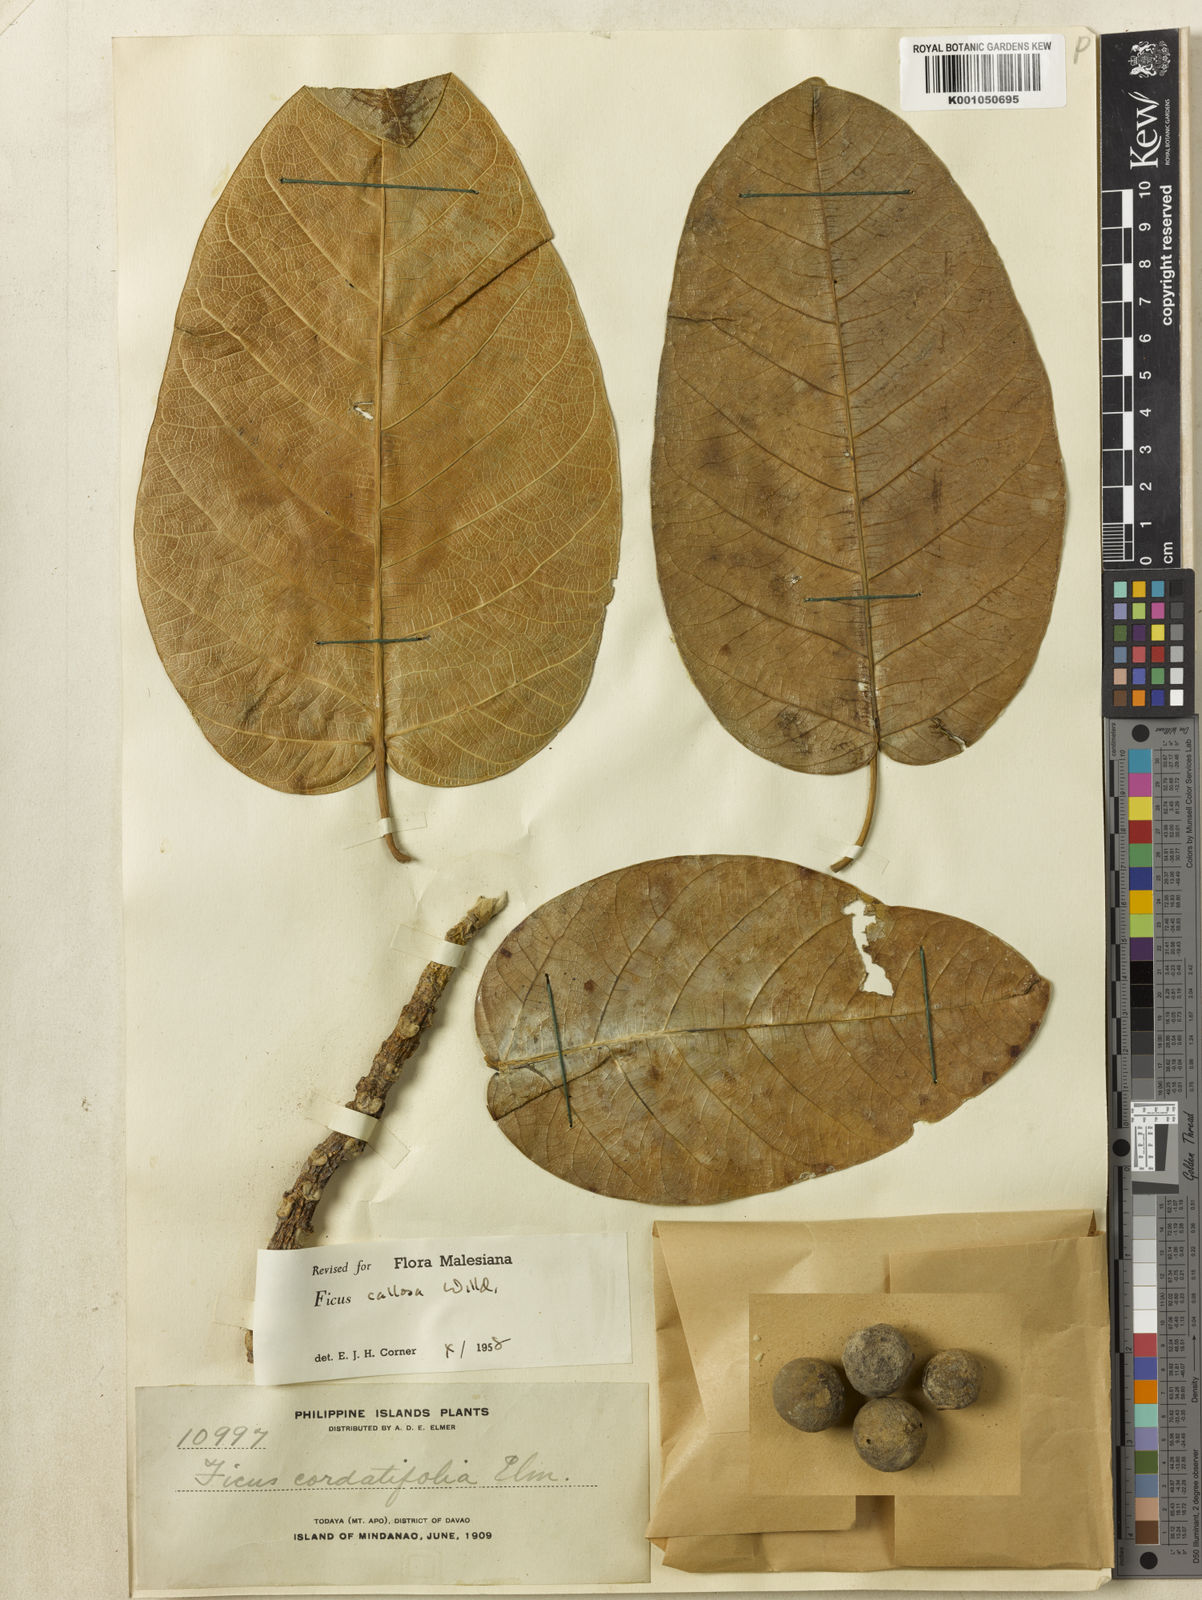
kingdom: Plantae
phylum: Tracheophyta
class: Magnoliopsida
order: Rosales
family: Moraceae
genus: Ficus
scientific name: Ficus callosa
